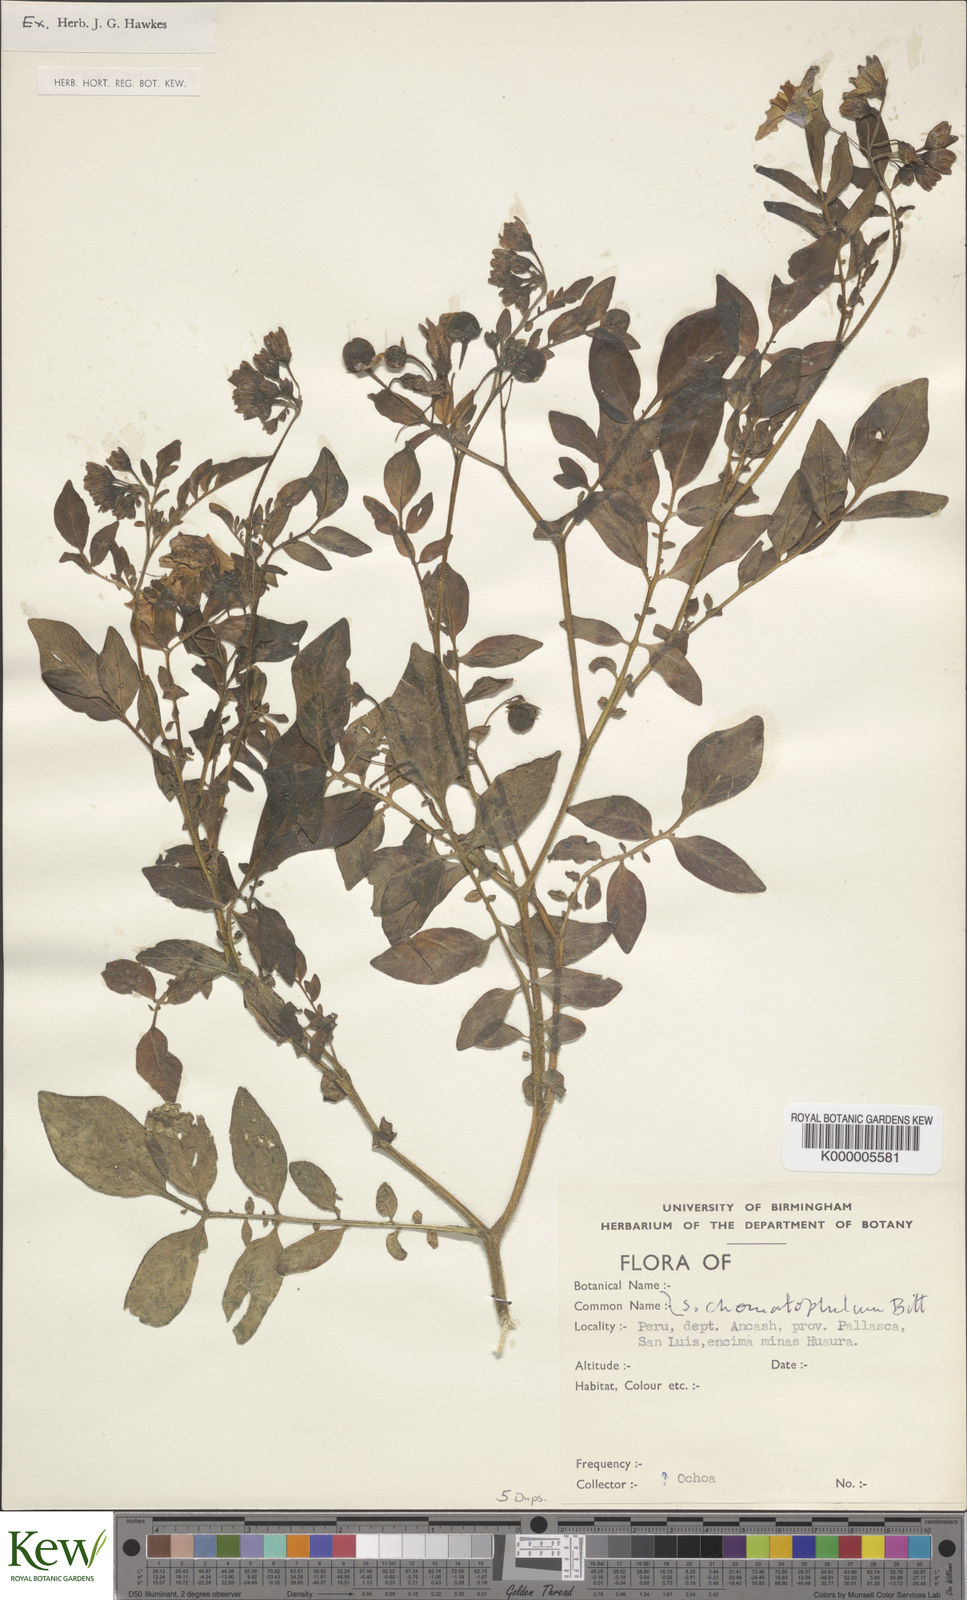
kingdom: Plantae
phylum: Tracheophyta
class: Magnoliopsida
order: Solanales
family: Solanaceae
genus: Solanum
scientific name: Solanum chomatophilum
